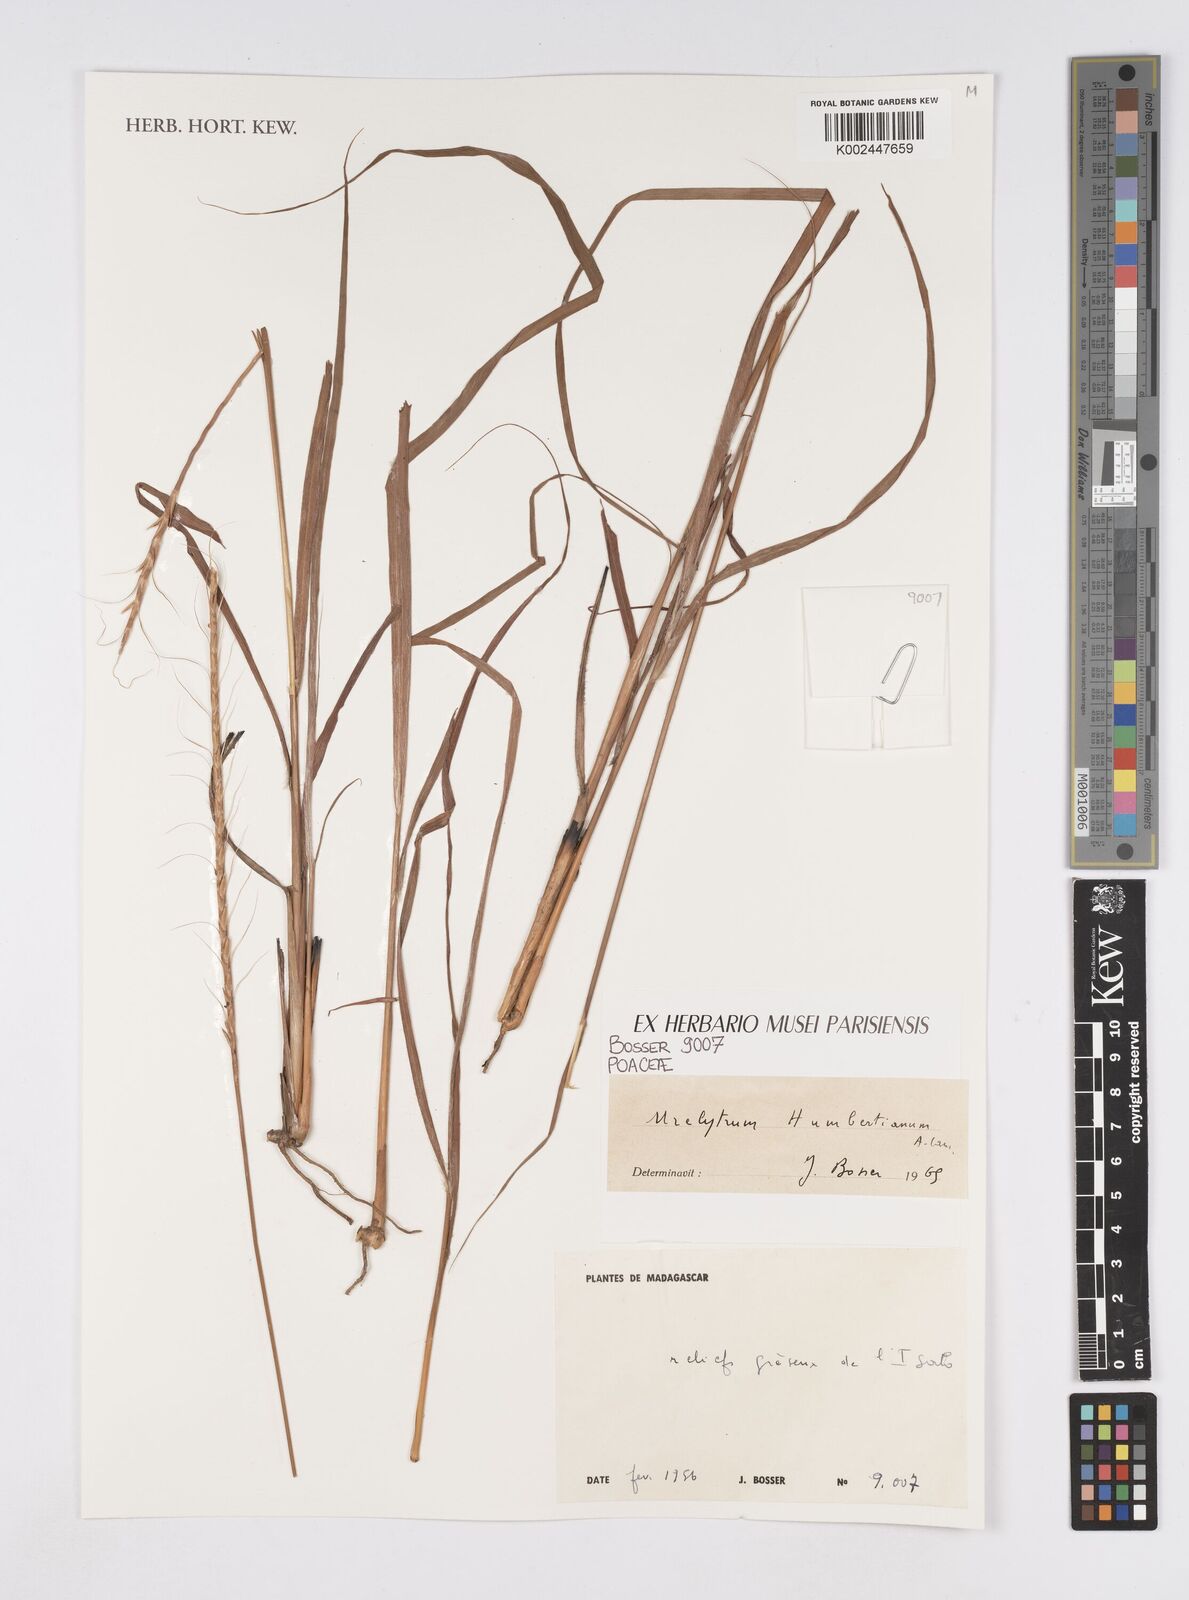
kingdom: Plantae
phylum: Tracheophyta
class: Liliopsida
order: Poales
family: Poaceae
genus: Urelytrum
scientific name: Urelytrum agropyroides
